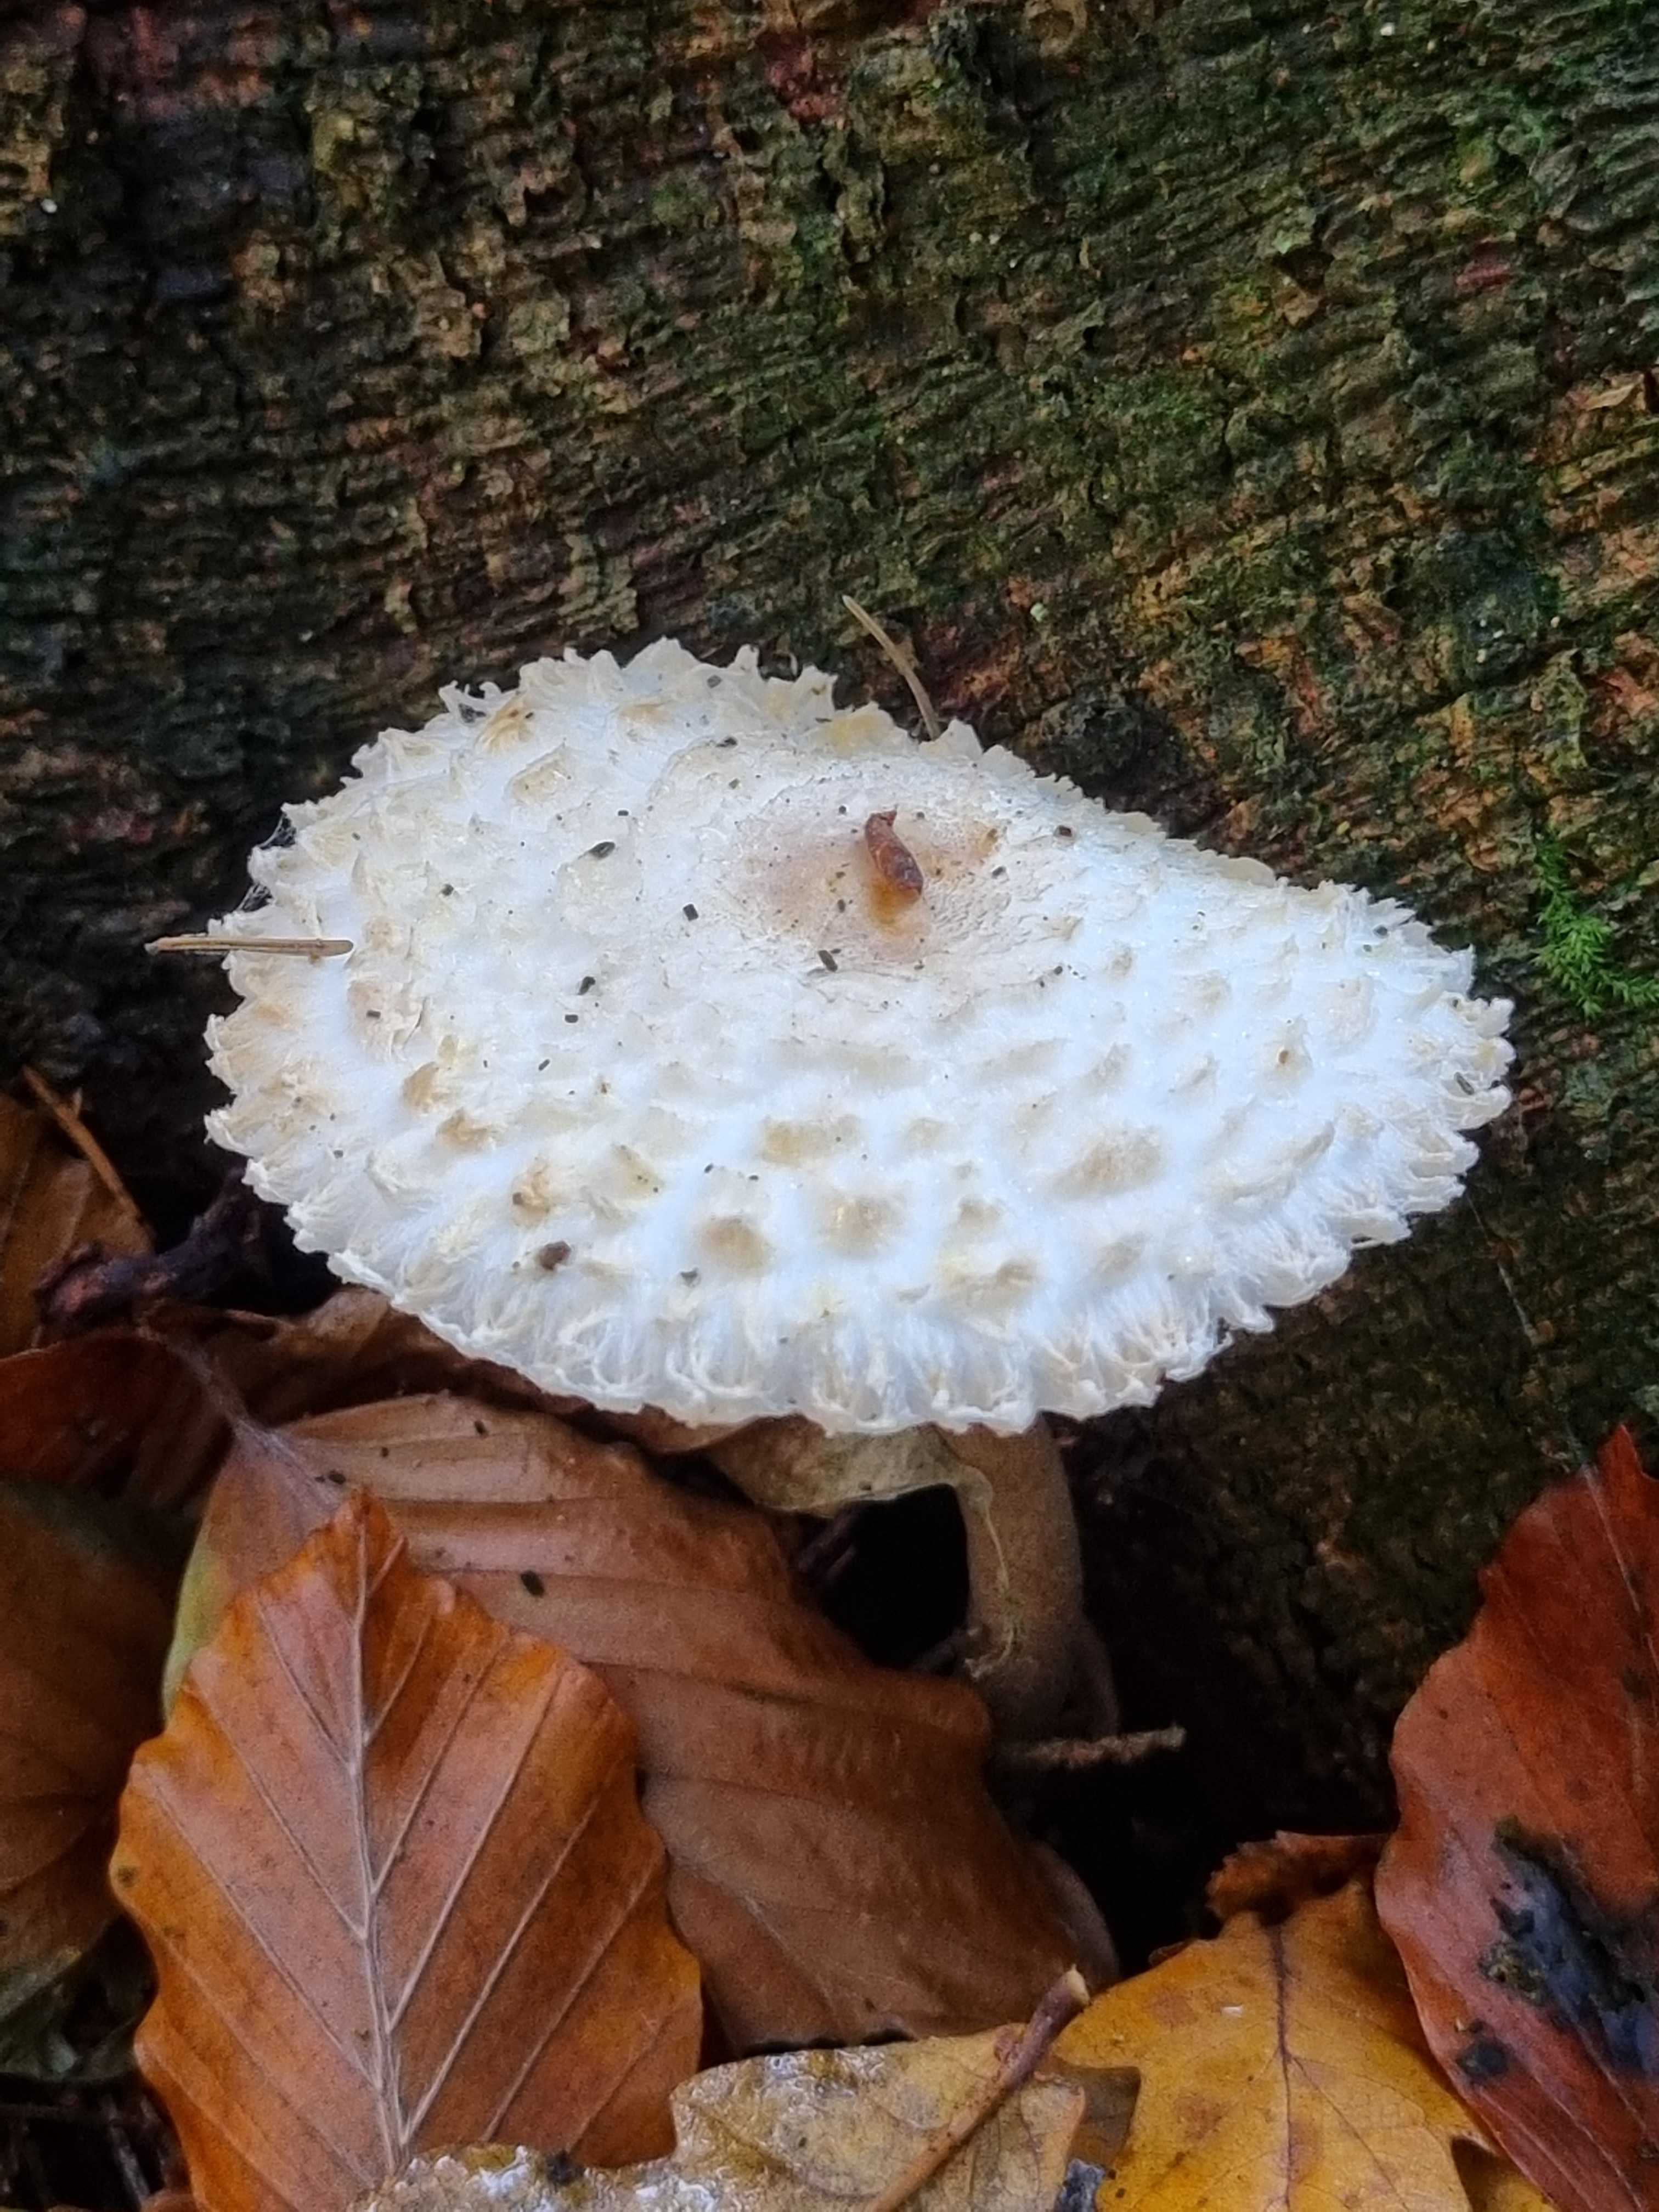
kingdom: Fungi
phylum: Basidiomycota
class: Agaricomycetes
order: Agaricales
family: Agaricaceae
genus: Leucoagaricus
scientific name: Leucoagaricus nympharum
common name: gran-silkehat
